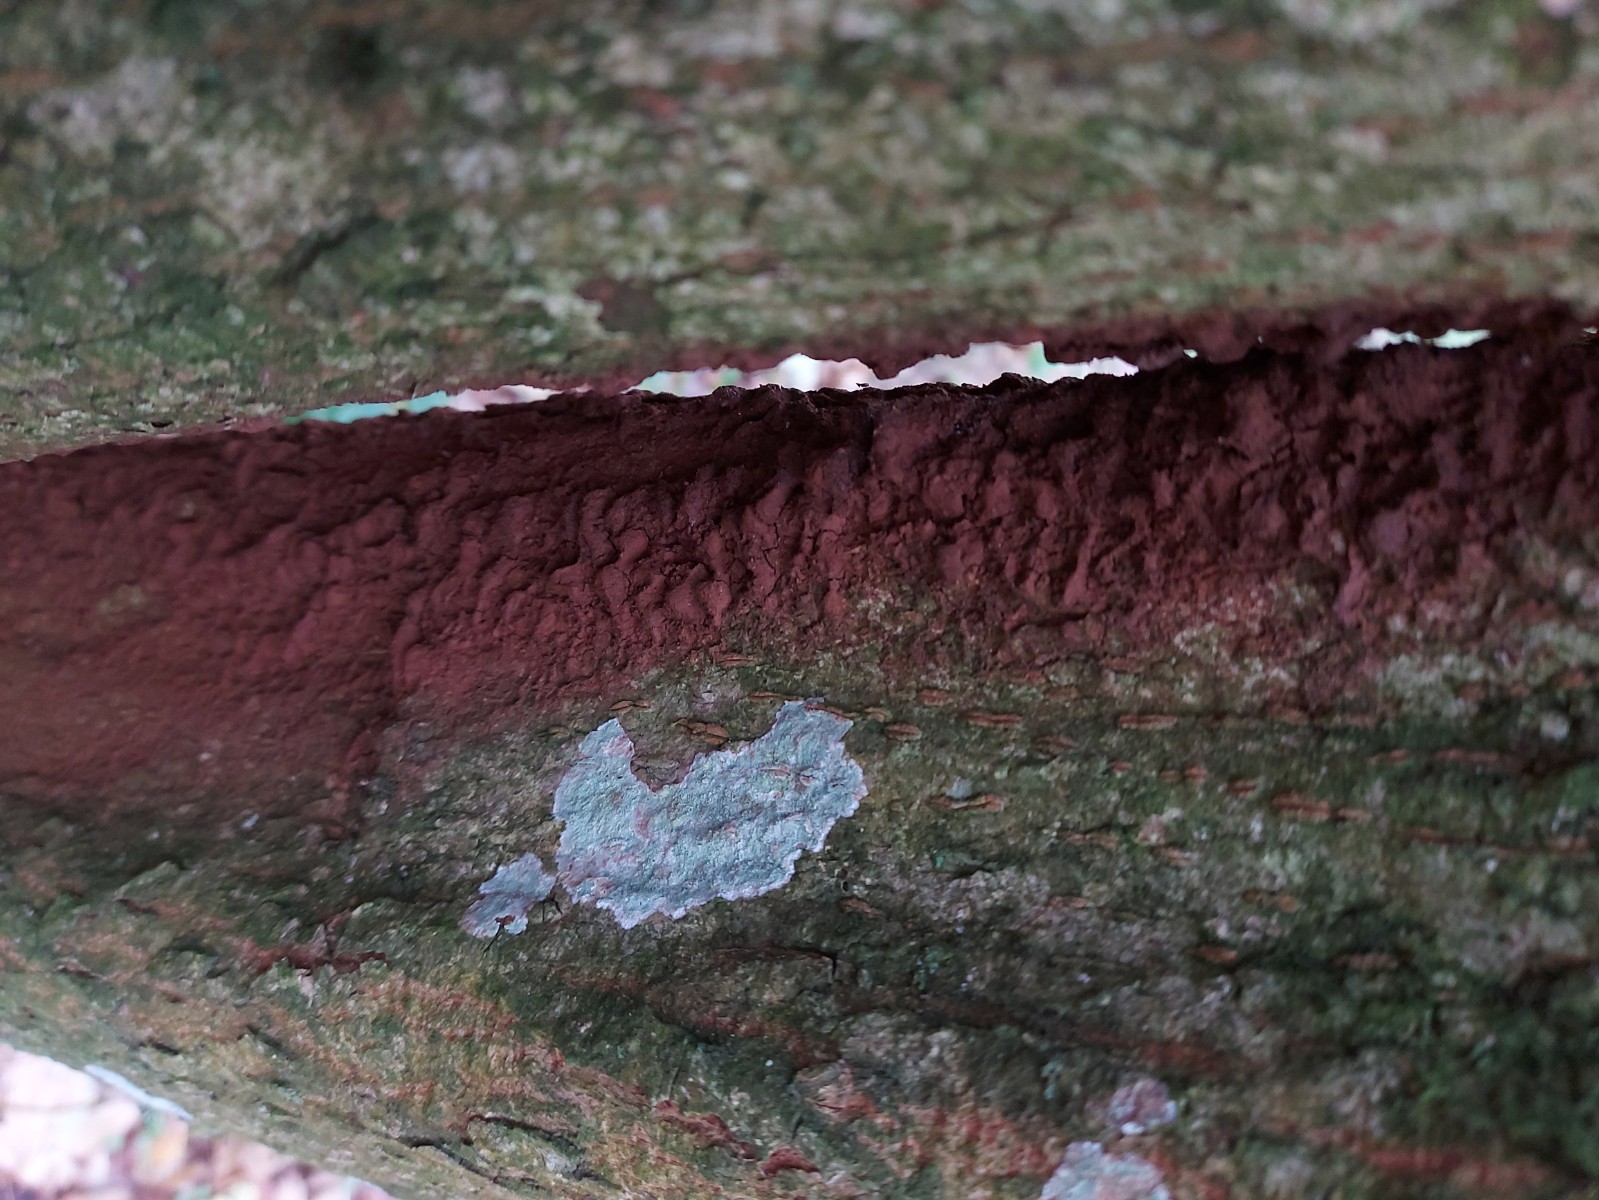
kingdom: Fungi
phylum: Basidiomycota
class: Agaricomycetes
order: Hymenochaetales
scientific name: Hymenochaetales
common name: børstesvampordenen
